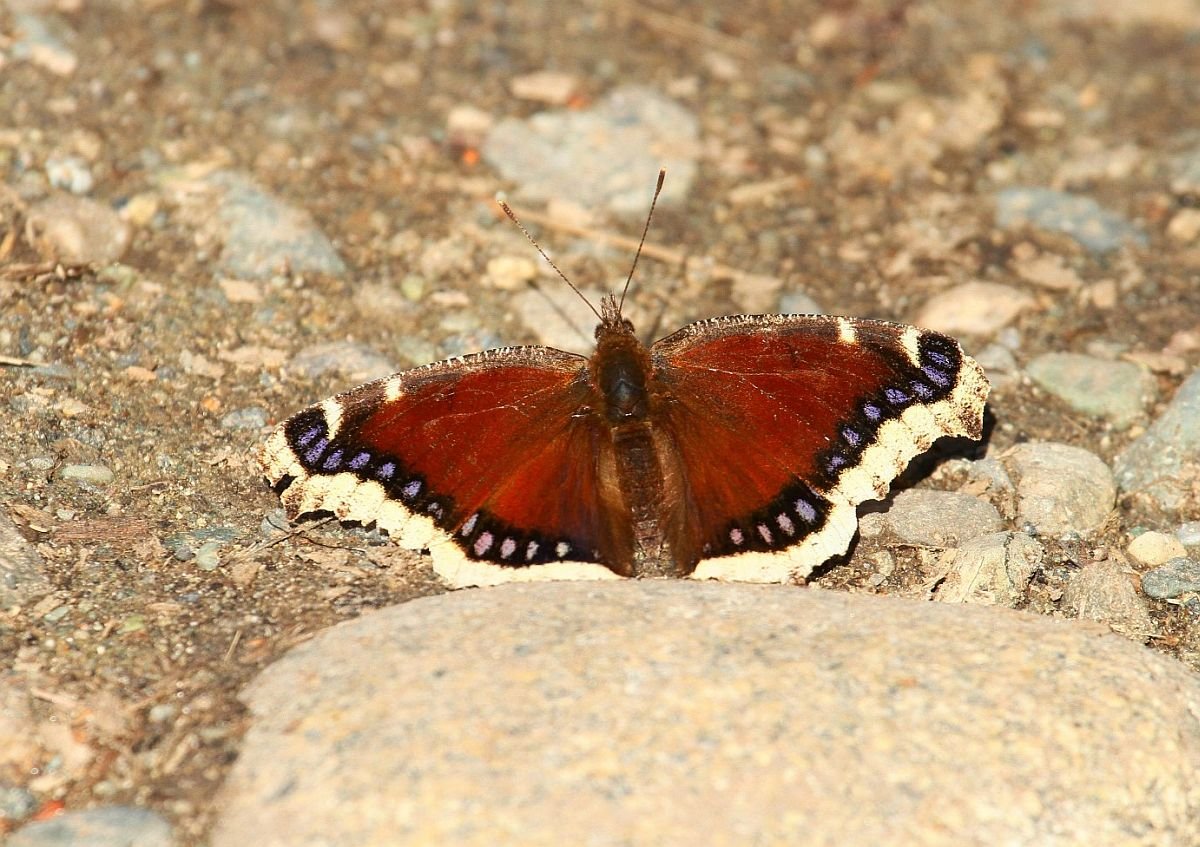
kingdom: Animalia
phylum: Arthropoda
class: Insecta
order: Lepidoptera
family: Nymphalidae
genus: Nymphalis
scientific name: Nymphalis antiopa
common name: Mourning Cloak
